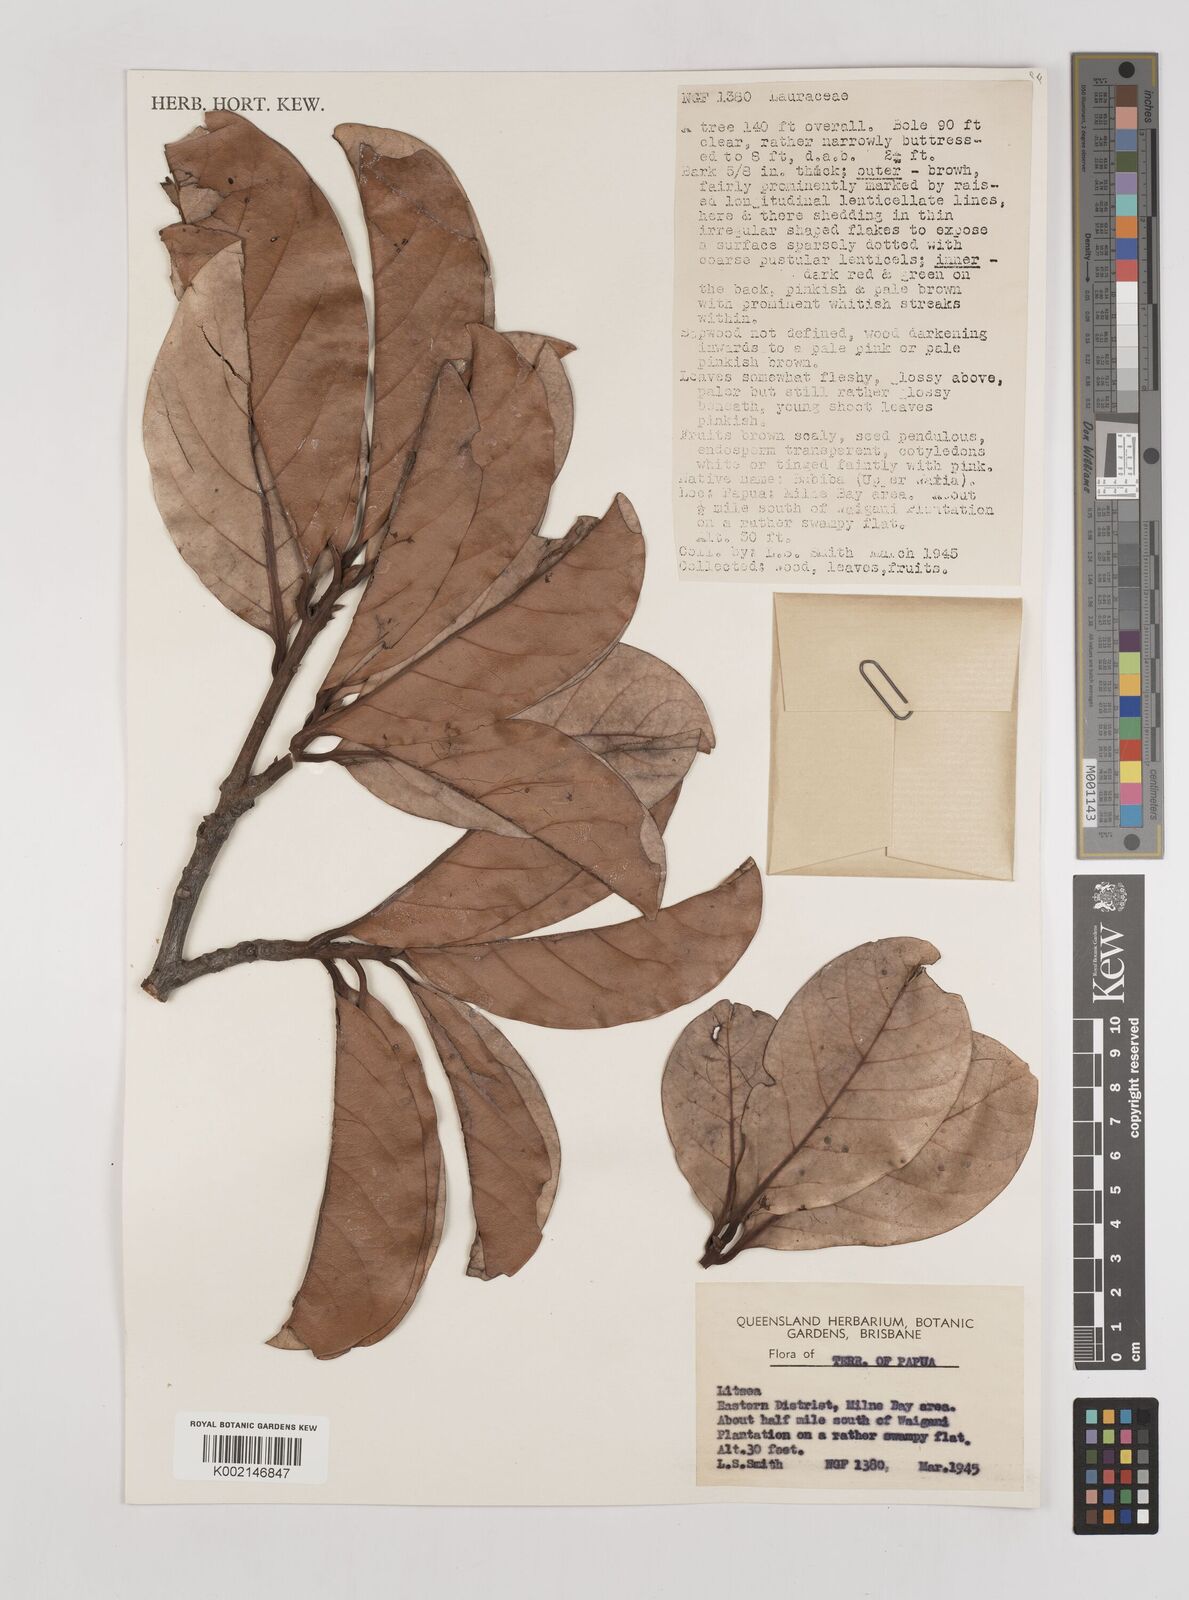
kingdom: Plantae
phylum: Tracheophyta
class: Magnoliopsida
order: Laurales
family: Lauraceae
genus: Litsea
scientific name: Litsea
